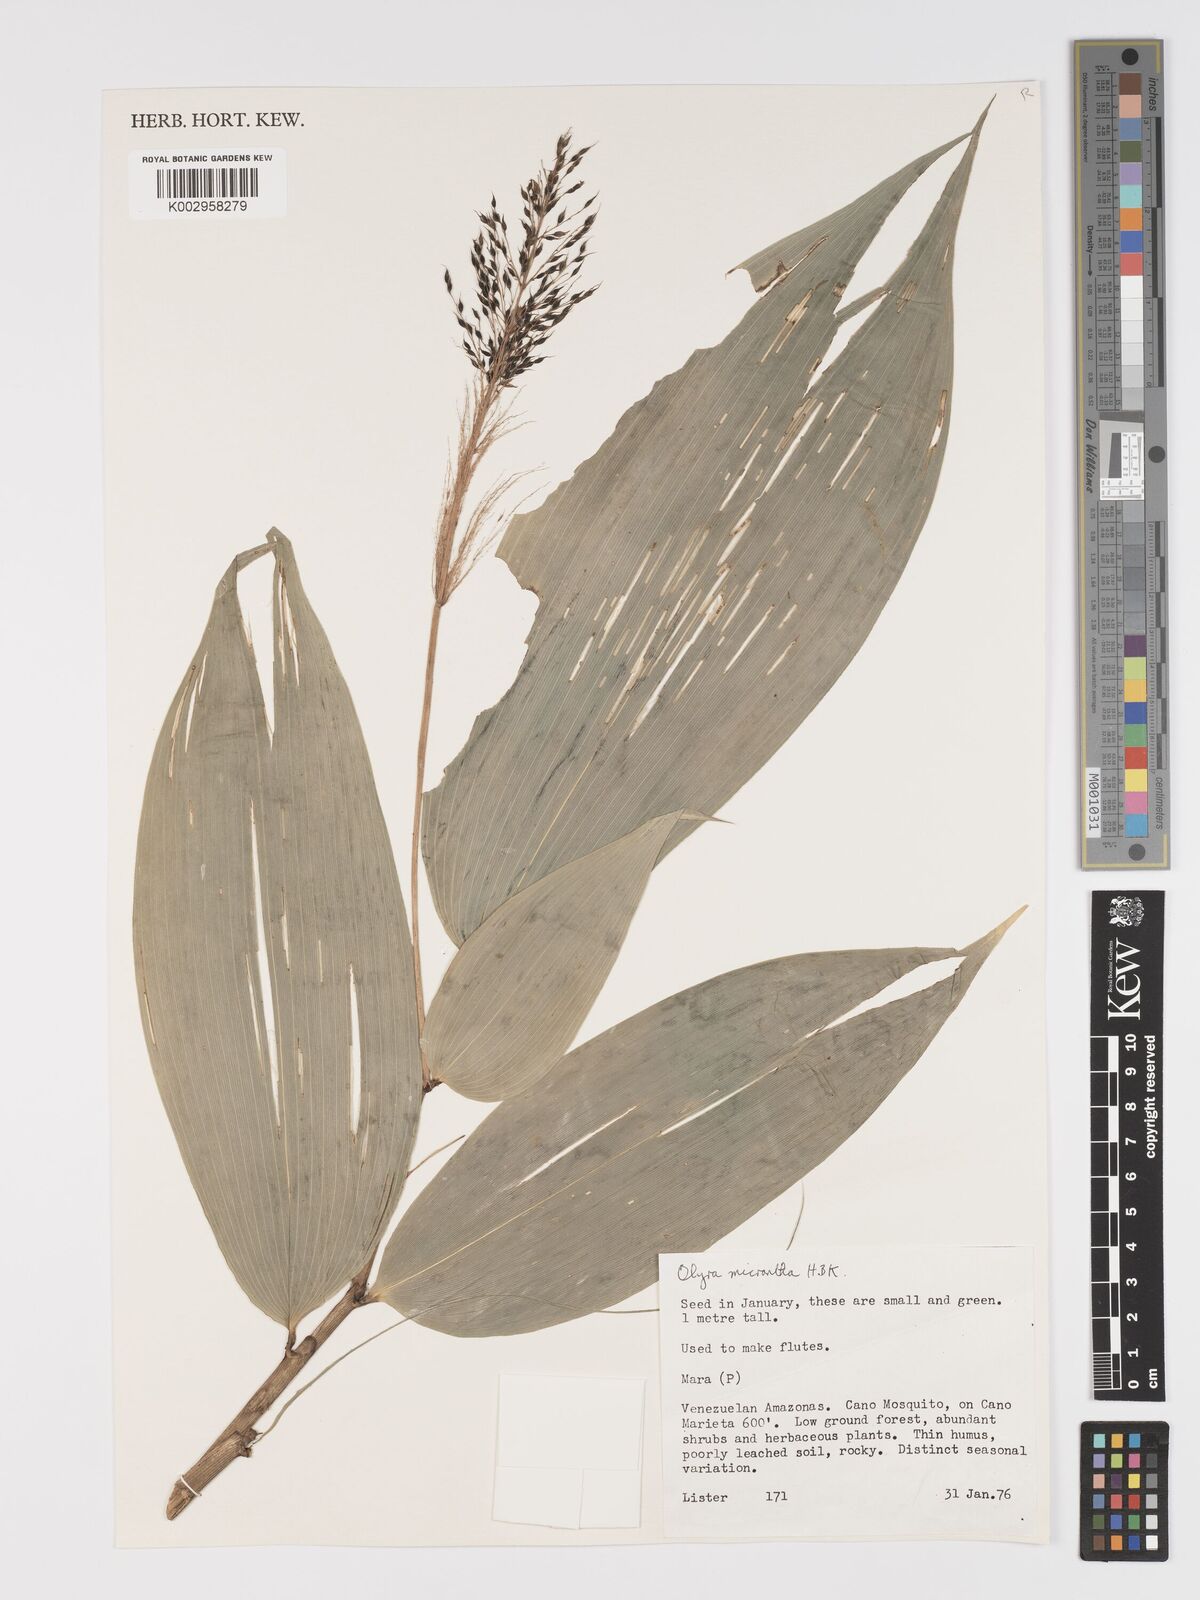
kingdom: Plantae
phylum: Tracheophyta
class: Liliopsida
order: Poales
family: Poaceae
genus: Taquara
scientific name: Taquara micrantha
